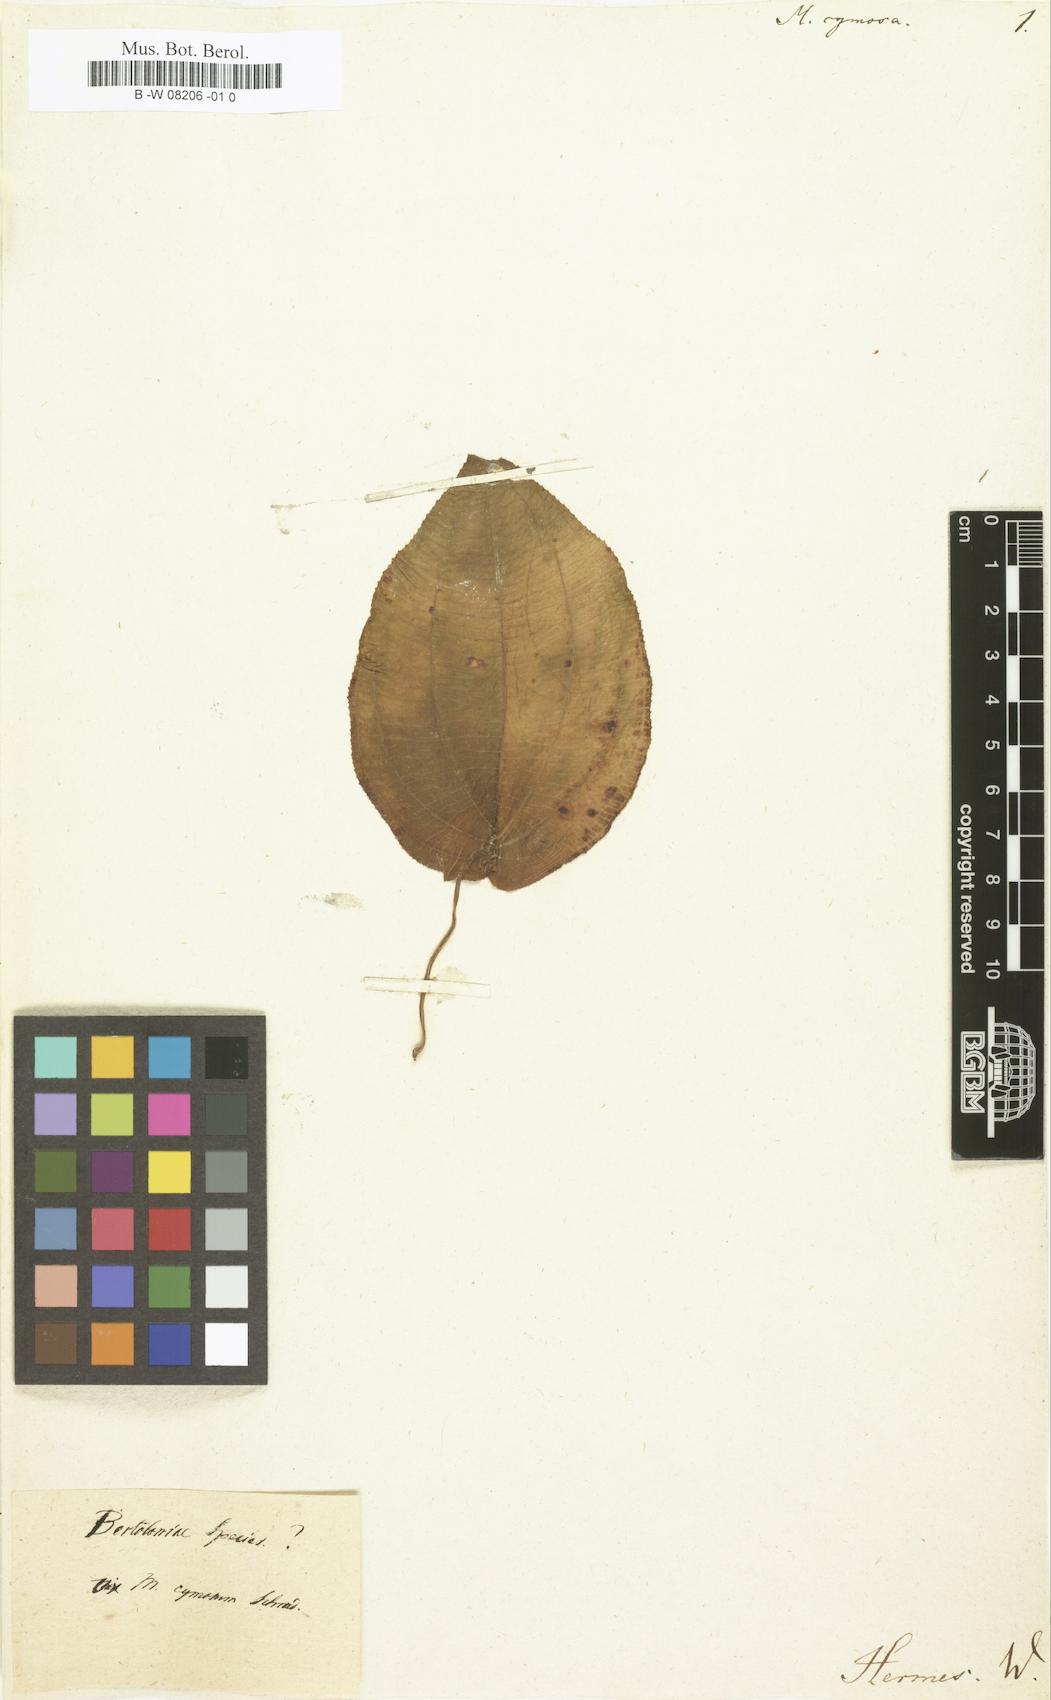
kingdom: Plantae
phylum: Tracheophyta
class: Magnoliopsida
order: Myrtales
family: Melastomataceae
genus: Melastoma
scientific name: Melastoma cymosum
